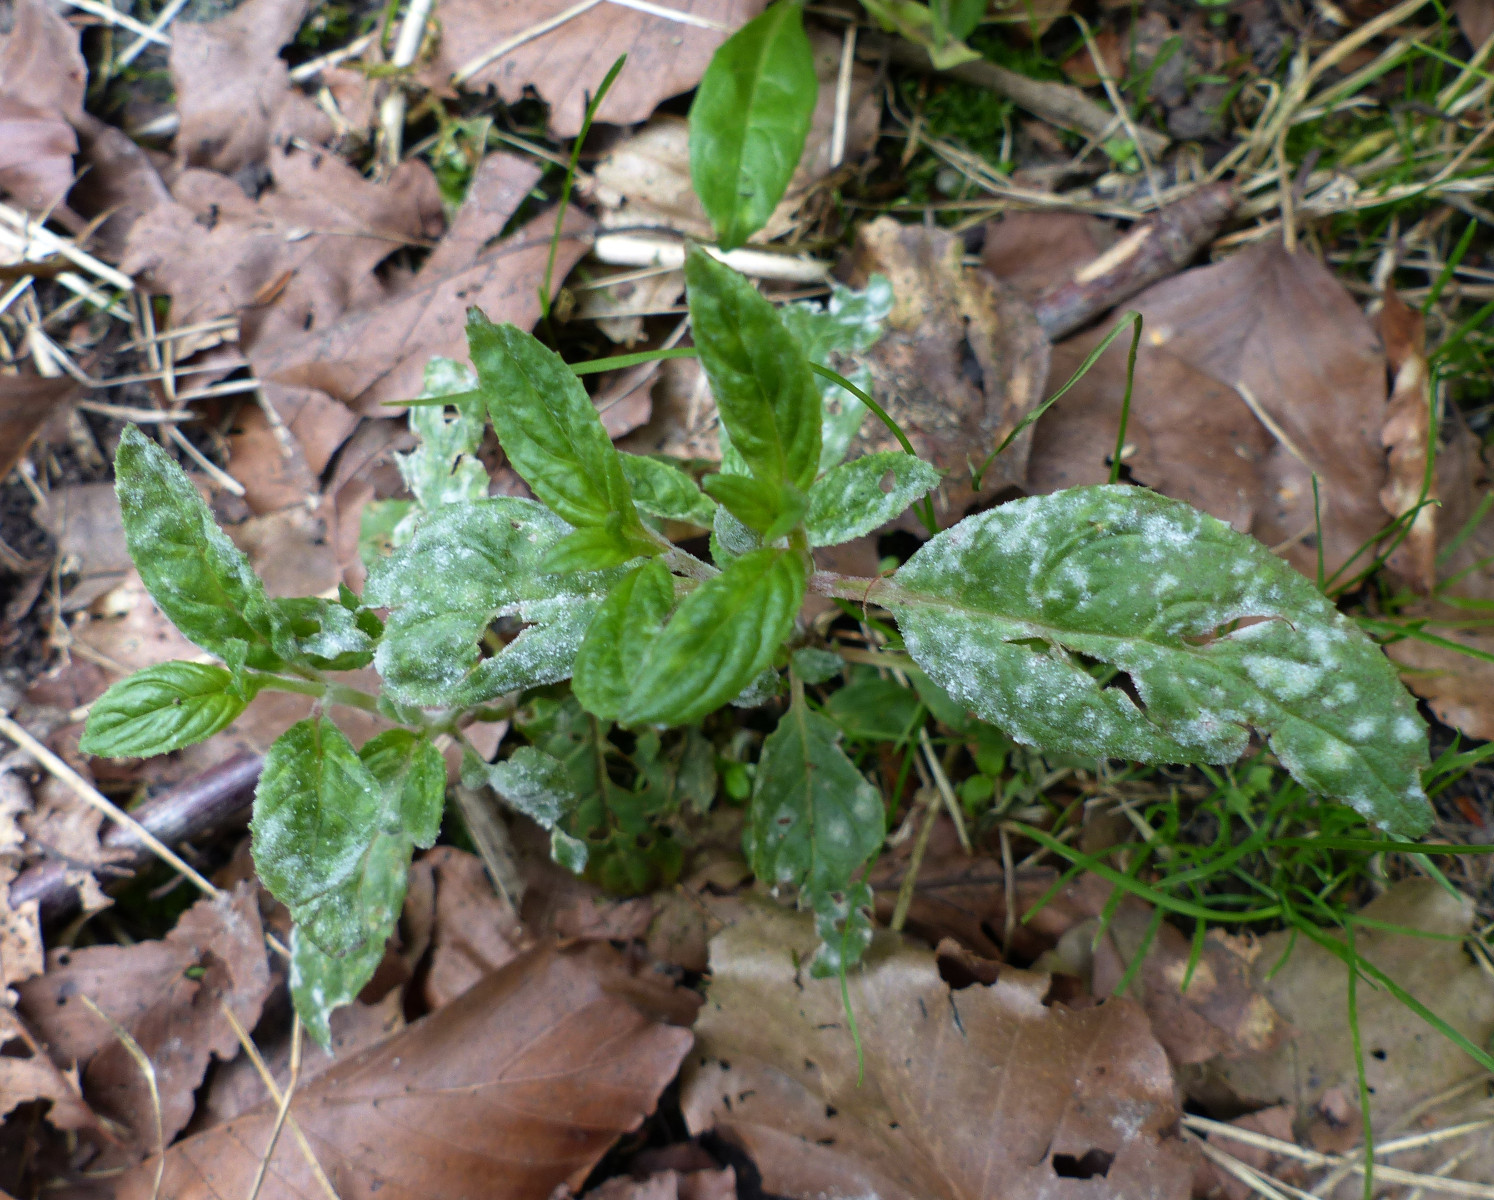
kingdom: Fungi
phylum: Ascomycota
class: Leotiomycetes
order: Helotiales
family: Erysiphaceae
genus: Podosphaera
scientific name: Podosphaera epilobii
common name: dueurt-meldug
